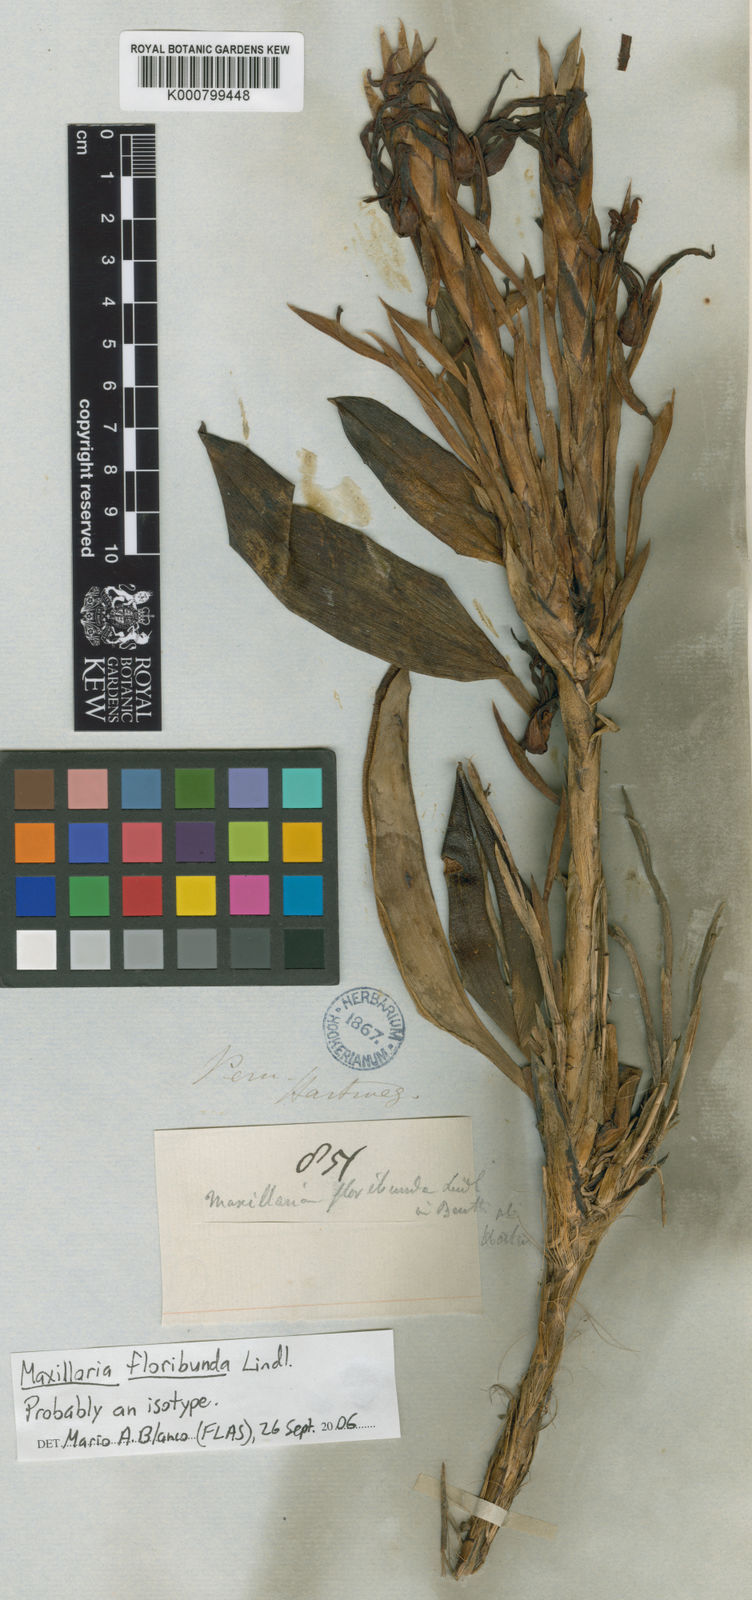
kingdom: Plantae
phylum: Tracheophyta
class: Liliopsida
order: Asparagales
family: Orchidaceae
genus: Maxillaria
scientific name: Maxillaria floribunda
